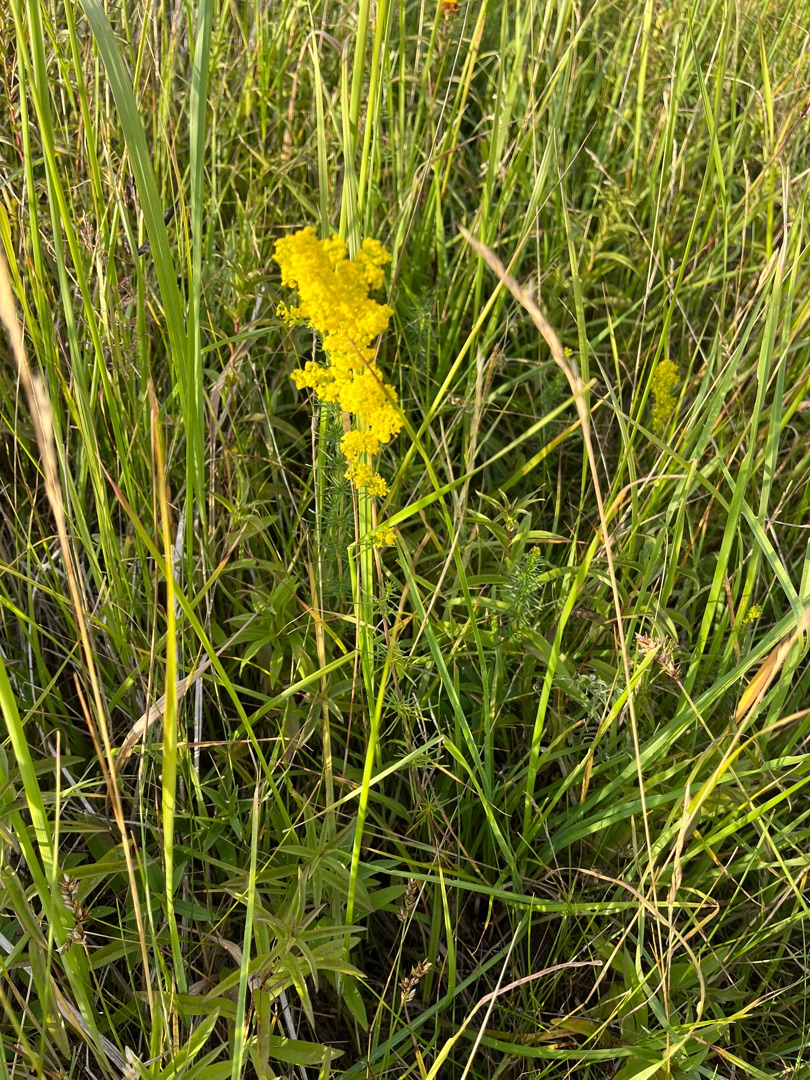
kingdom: Plantae
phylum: Tracheophyta
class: Magnoliopsida
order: Gentianales
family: Rubiaceae
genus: Galium
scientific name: Galium verum
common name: Gul snerre
